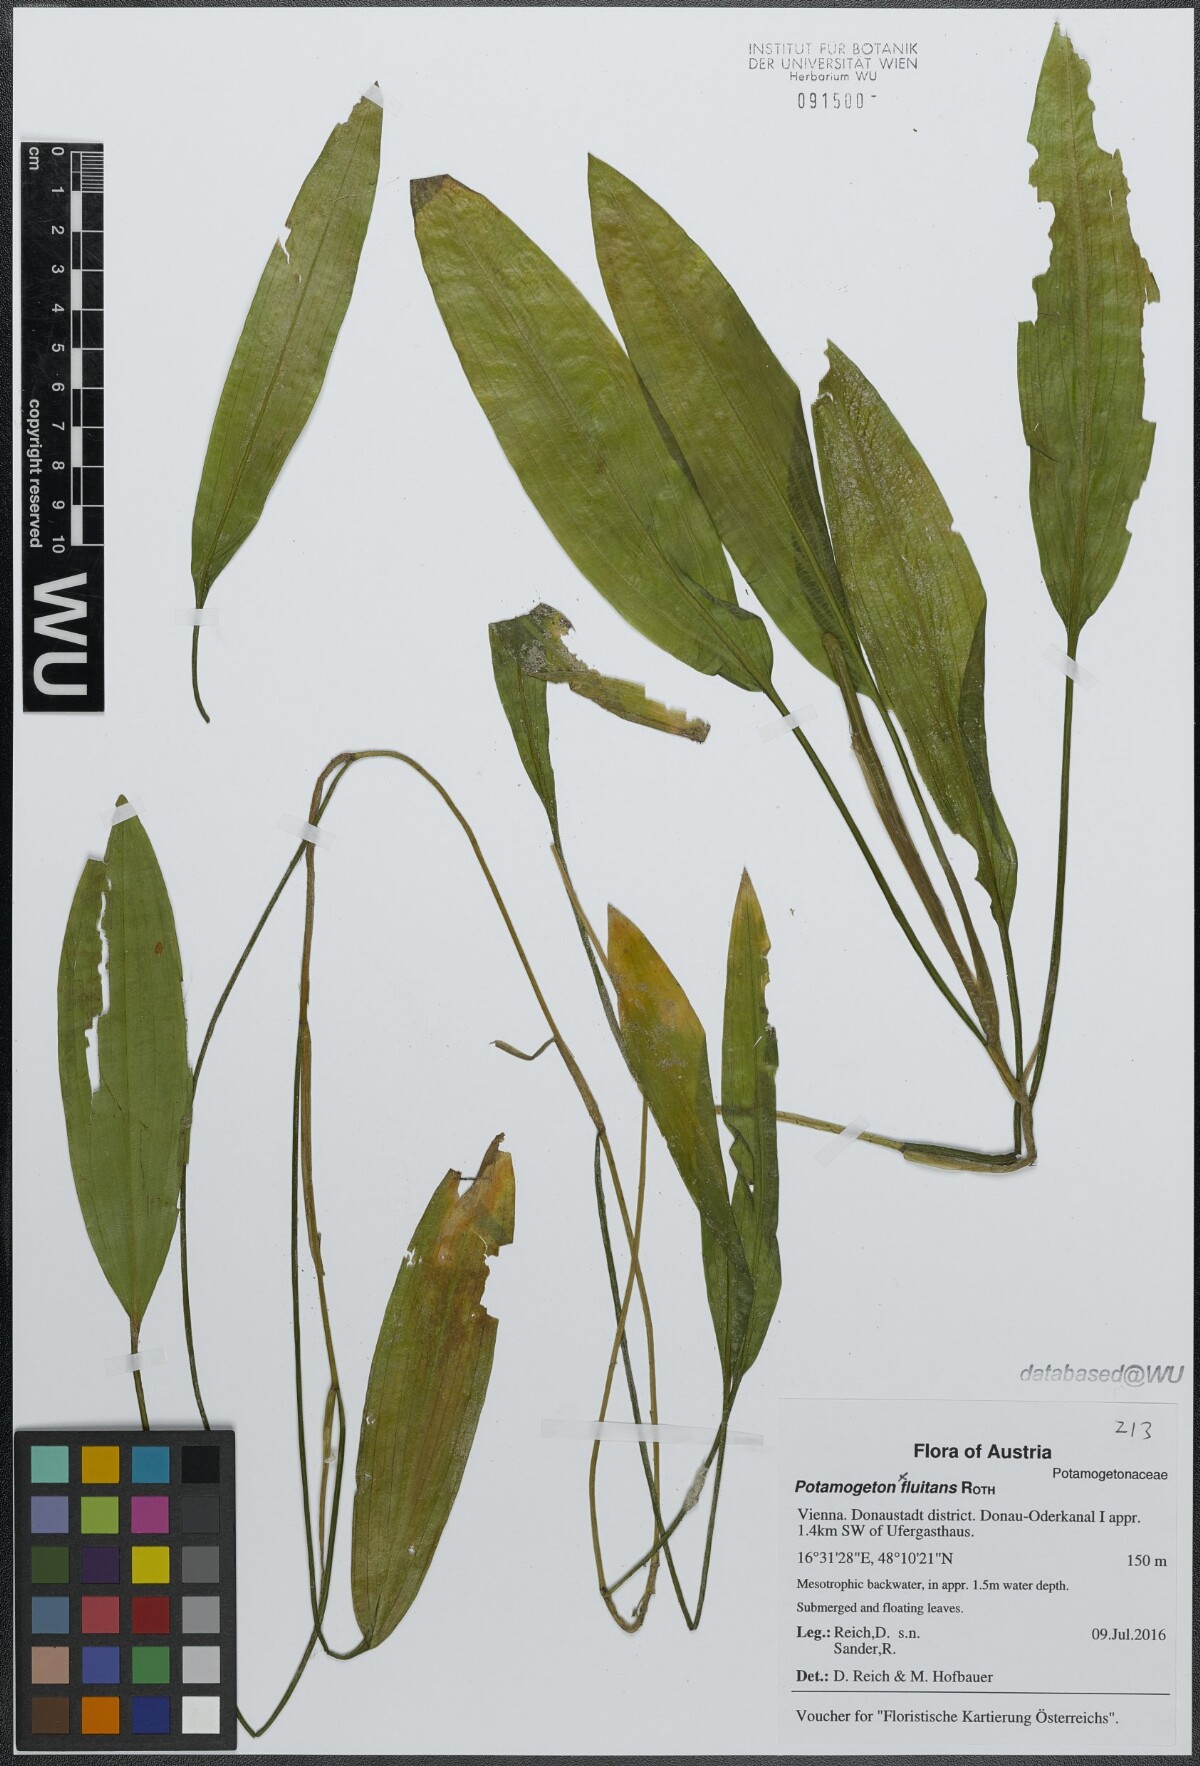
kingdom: Plantae
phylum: Tracheophyta
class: Liliopsida
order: Alismatales
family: Potamogetonaceae
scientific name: Potamogetonaceae
